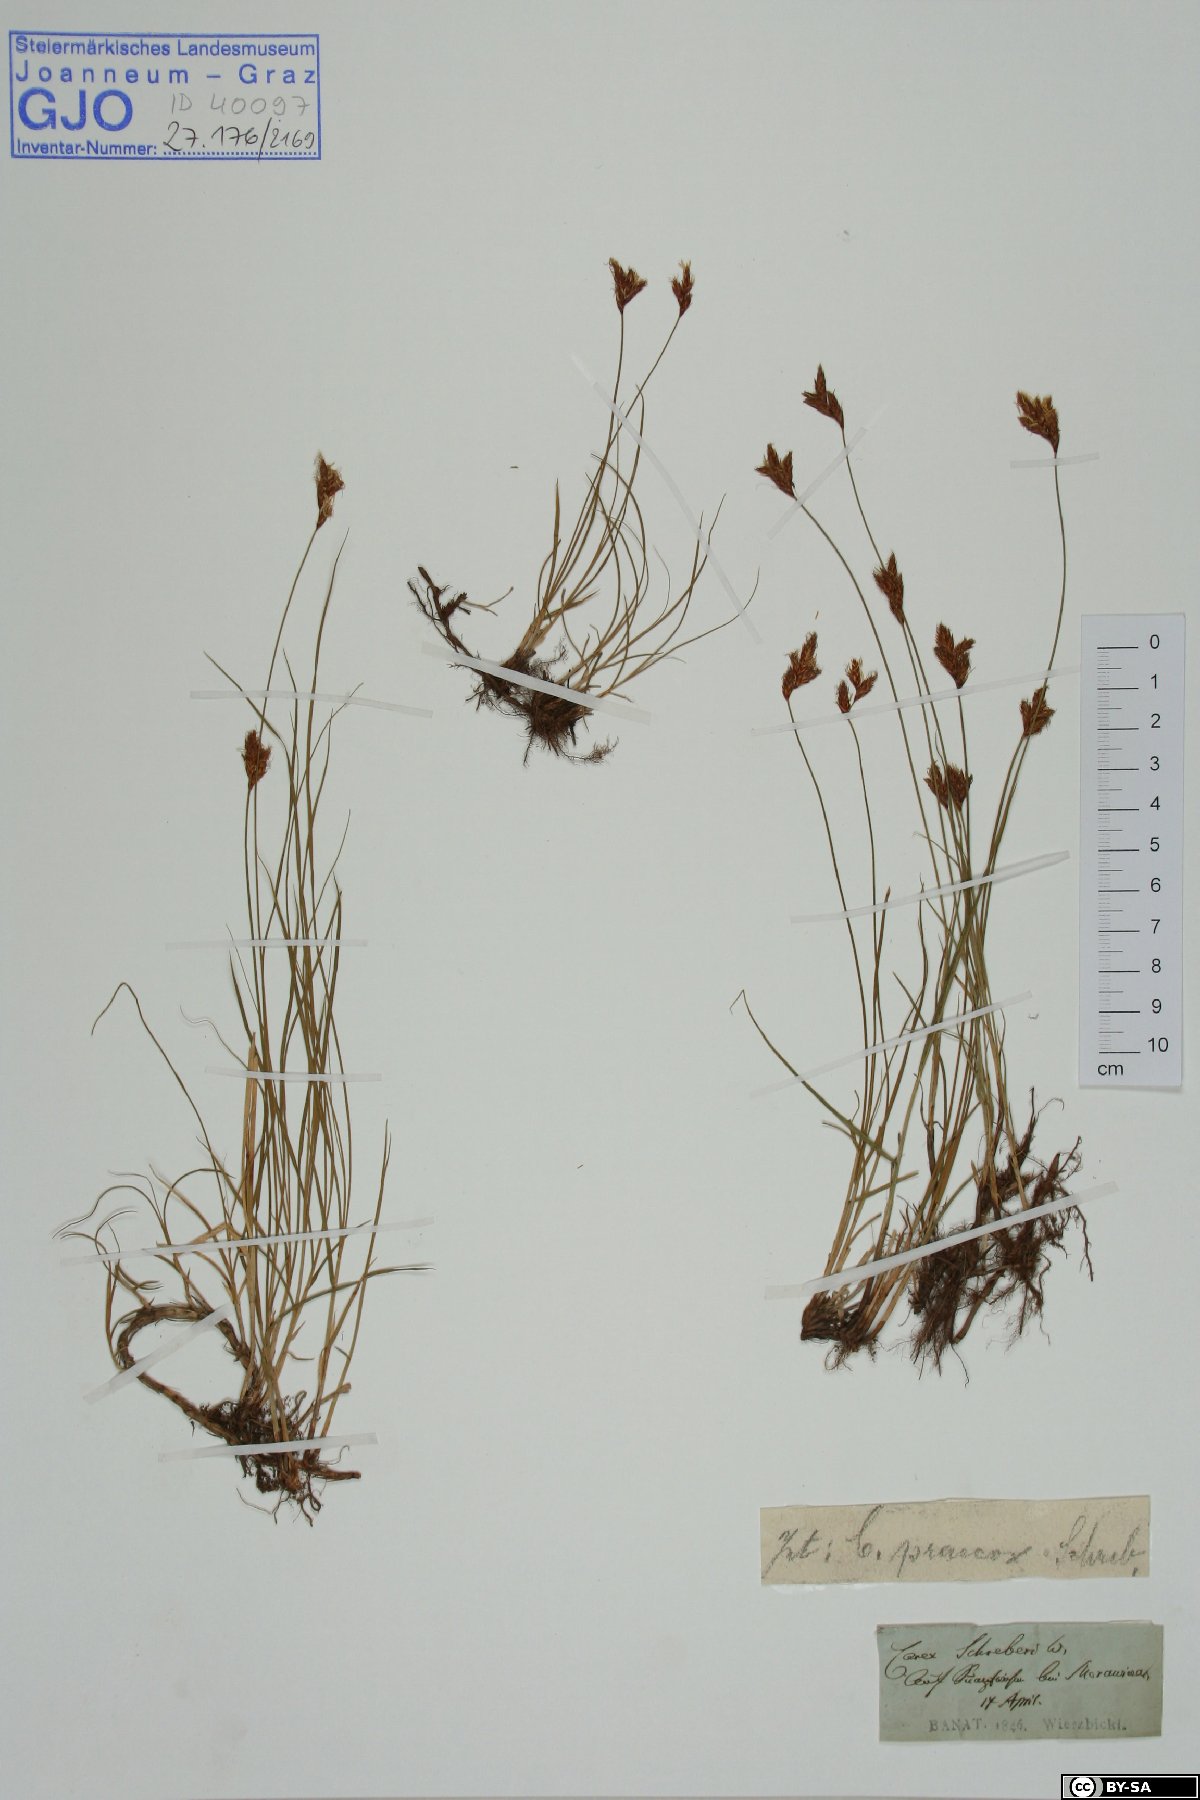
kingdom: Plantae
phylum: Tracheophyta
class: Liliopsida
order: Poales
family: Cyperaceae
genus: Carex
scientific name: Carex praecox
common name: Early sedge
